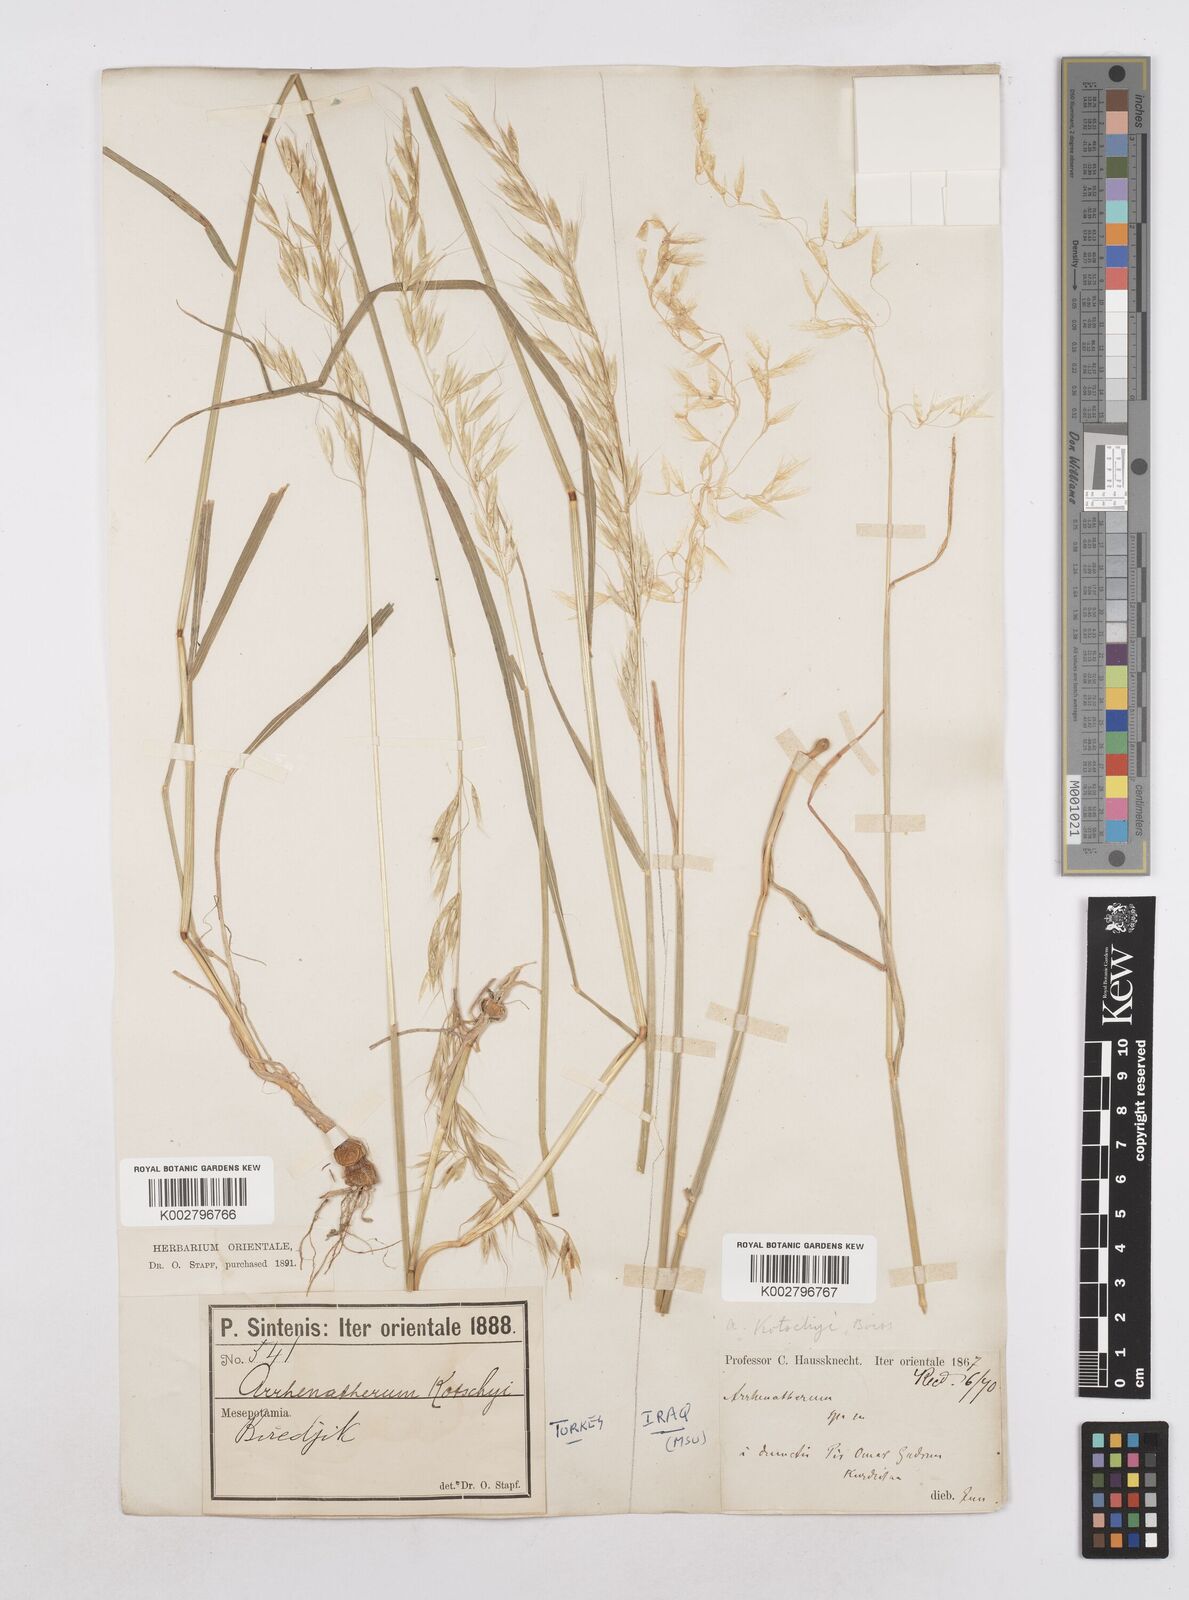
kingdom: Plantae
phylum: Tracheophyta
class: Liliopsida
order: Poales
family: Poaceae
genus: Arrhenatherum
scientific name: Arrhenatherum kotschyi
